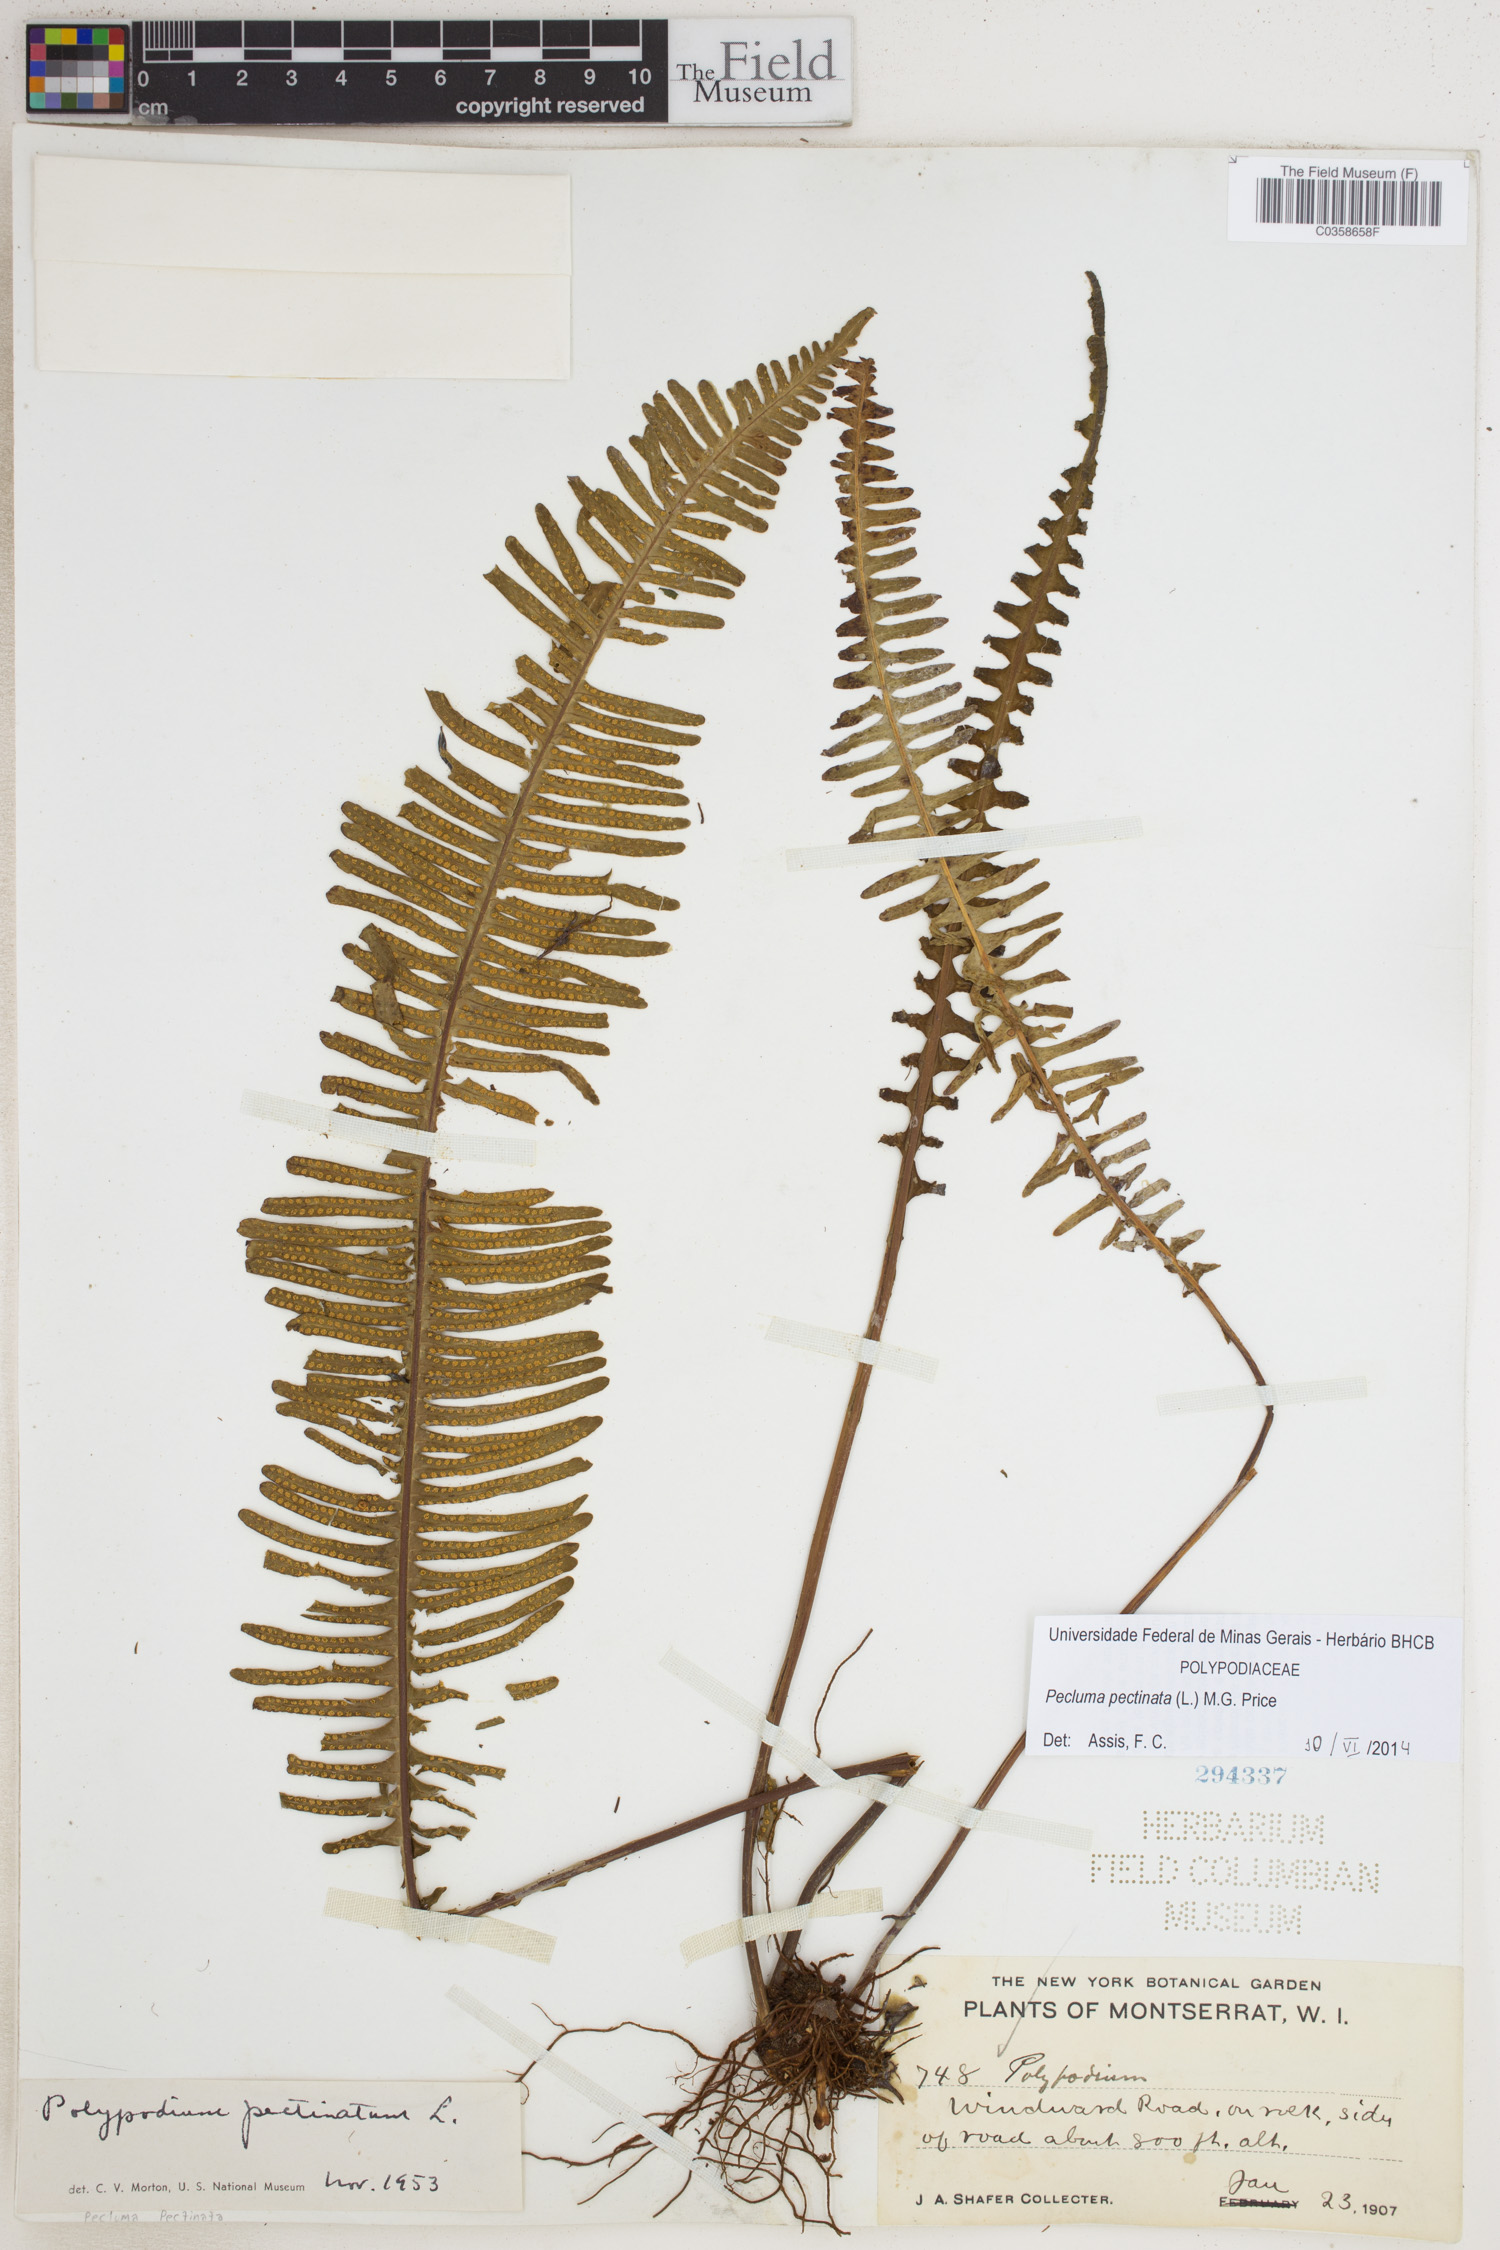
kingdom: Plantae
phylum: Tracheophyta
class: Polypodiopsida
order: Polypodiales
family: Polypodiaceae
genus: Pecluma
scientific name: Pecluma pectinata
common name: Msasa fern
